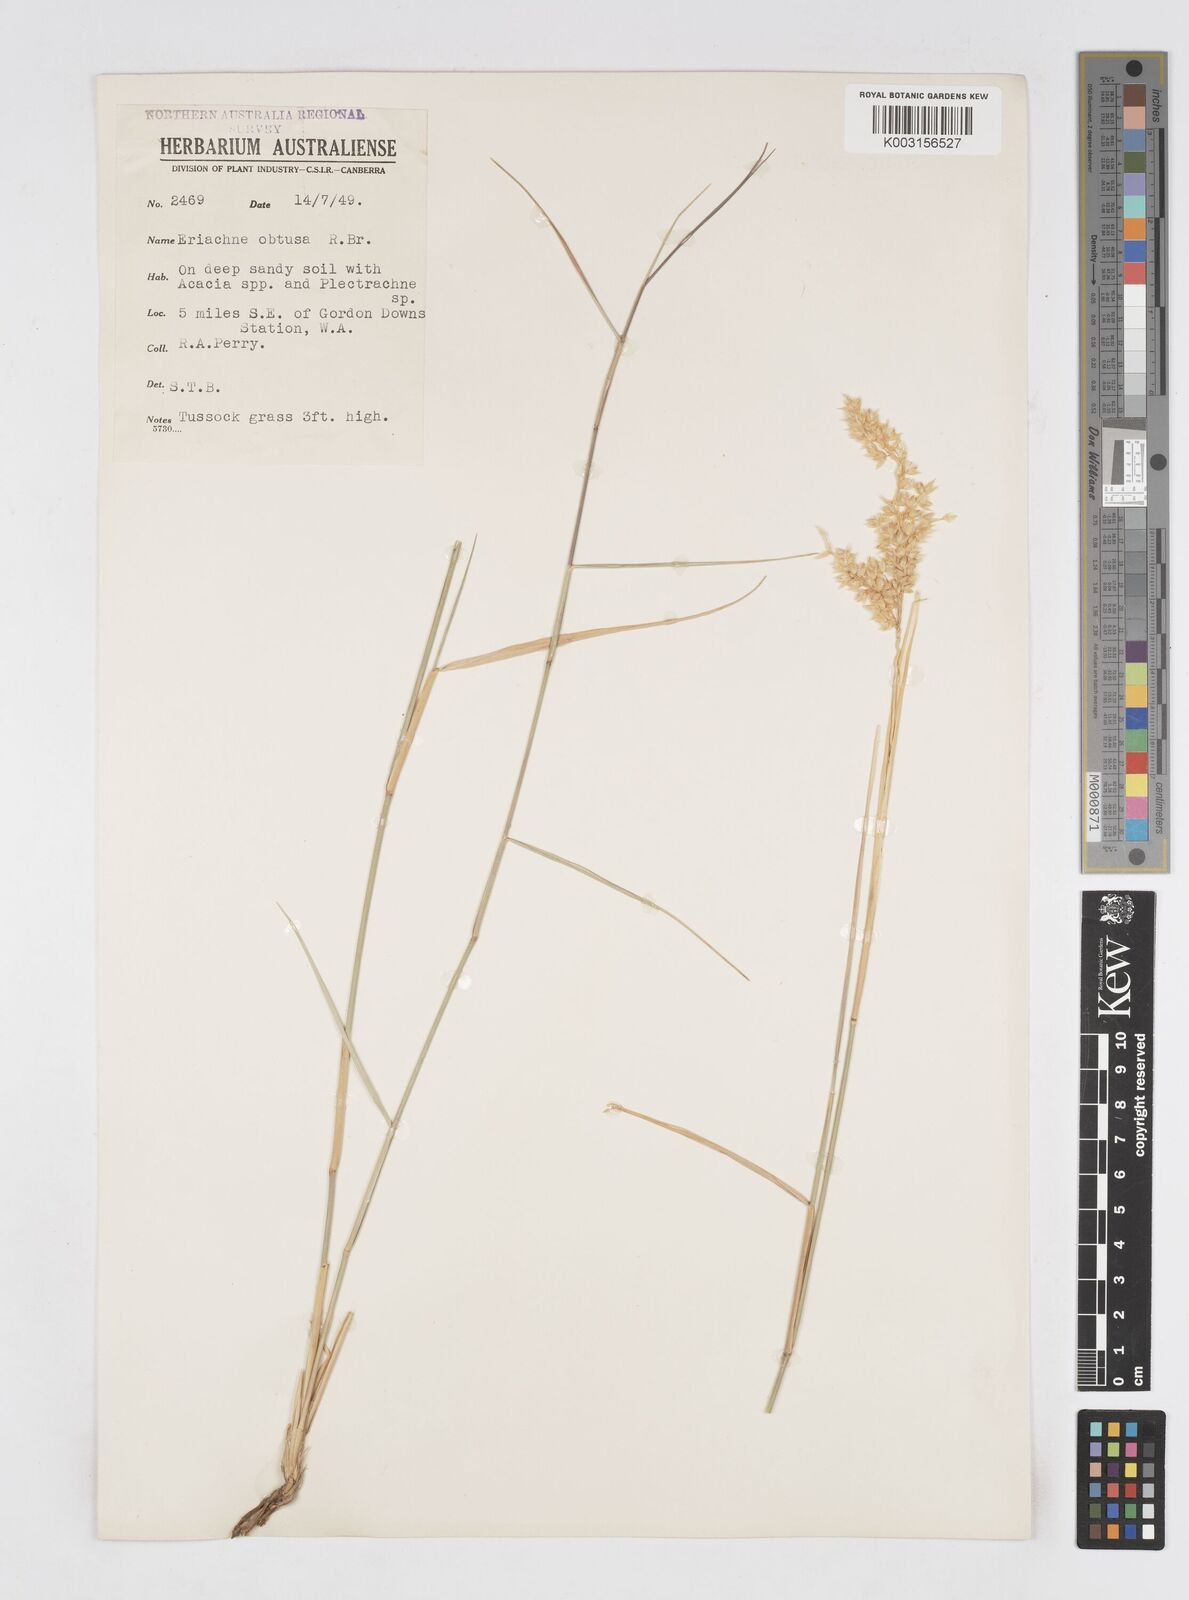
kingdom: Plantae
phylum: Tracheophyta
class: Liliopsida
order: Poales
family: Poaceae
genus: Eriachne
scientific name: Eriachne obtusa
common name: Northern wanderrie grass
